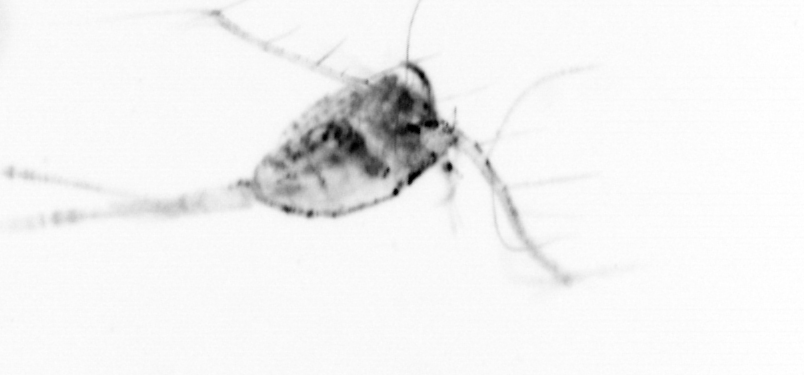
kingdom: Animalia
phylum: Arthropoda
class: Copepoda
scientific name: Copepoda
